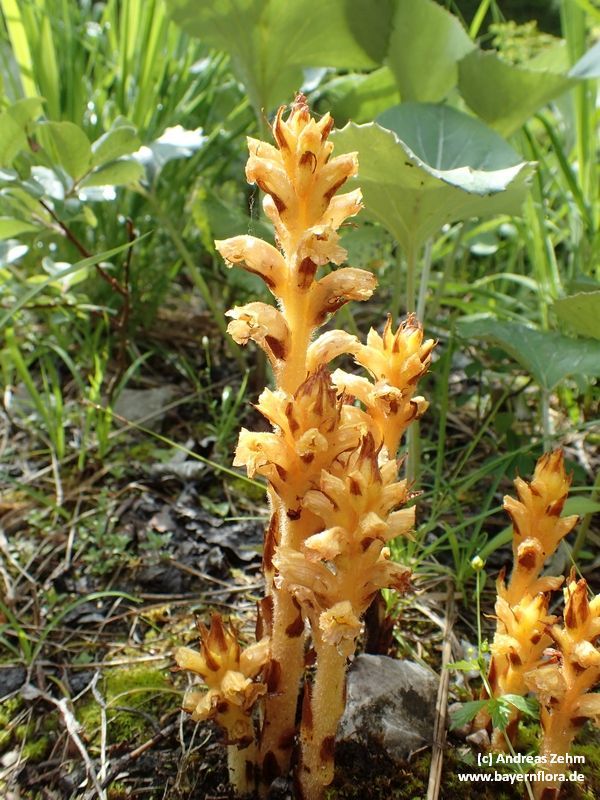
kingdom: Plantae
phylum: Tracheophyta
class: Magnoliopsida
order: Lamiales
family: Orobanchaceae
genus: Orobanche
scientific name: Orobanche flava
